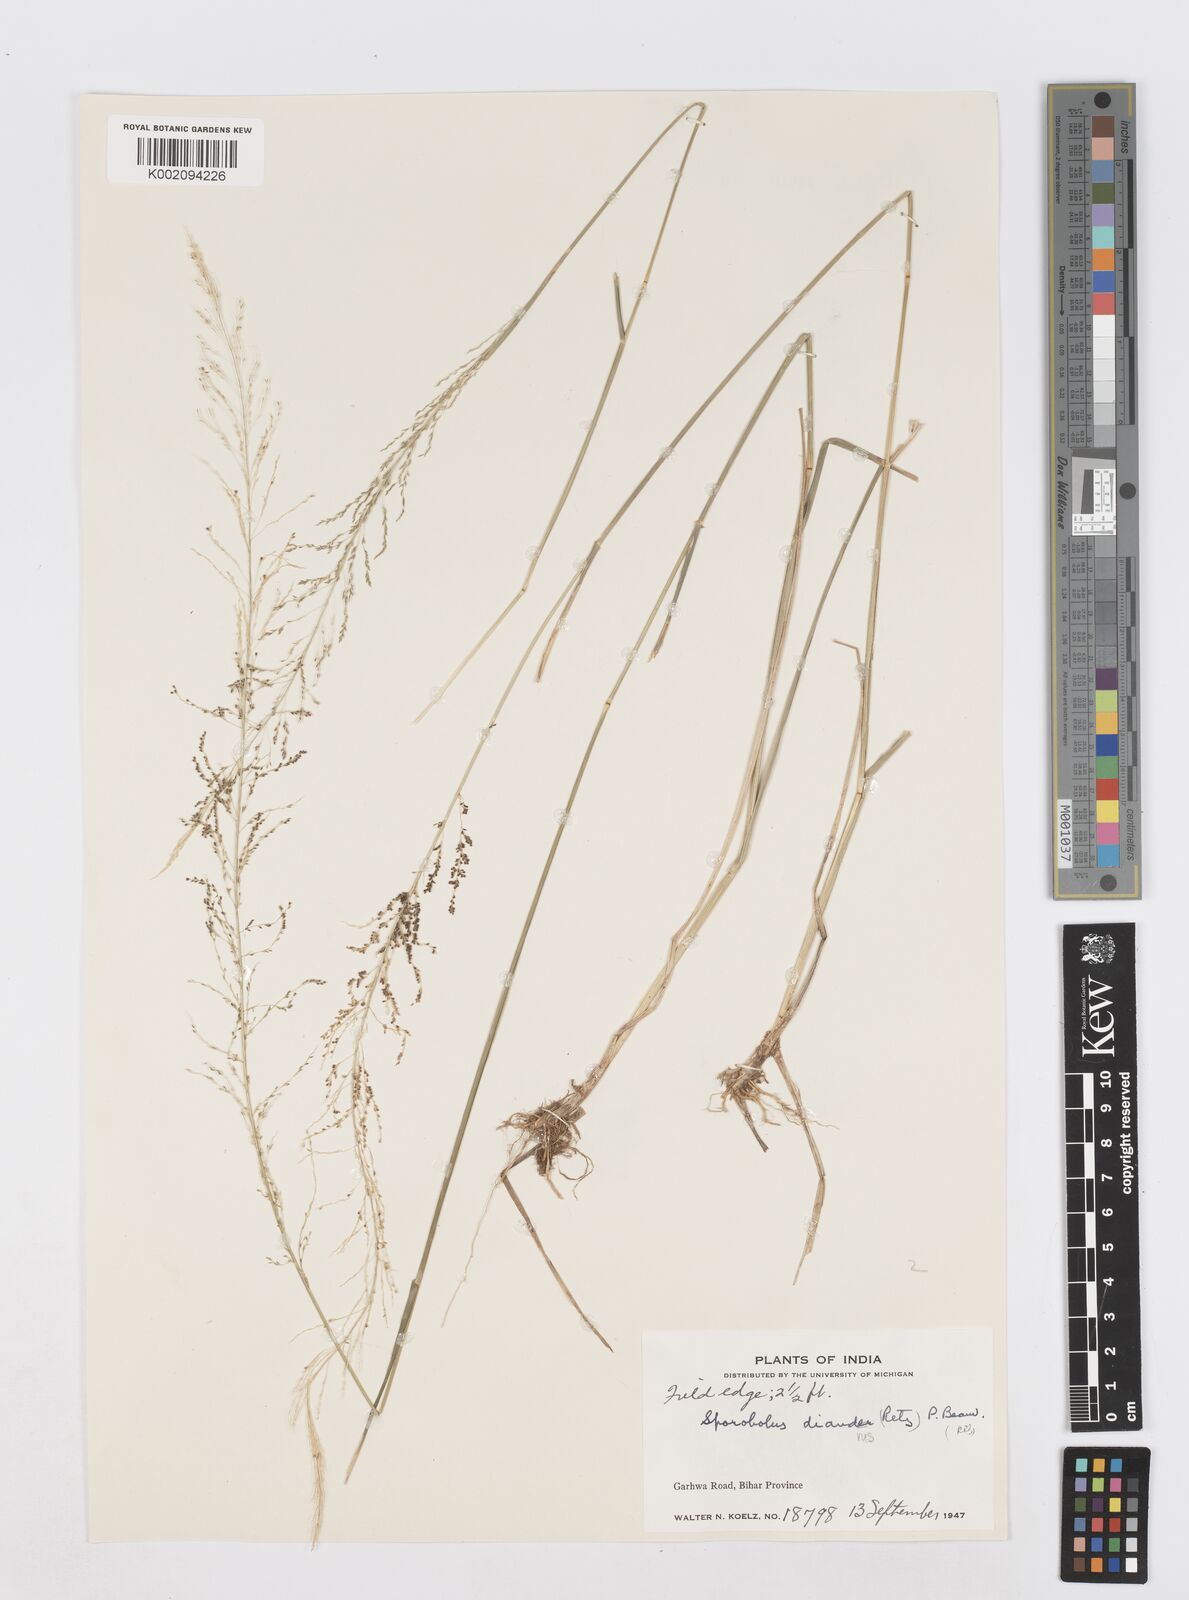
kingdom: Plantae
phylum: Tracheophyta
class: Liliopsida
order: Poales
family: Poaceae
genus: Sporobolus
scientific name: Sporobolus diandrus
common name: Tussock dropseed
